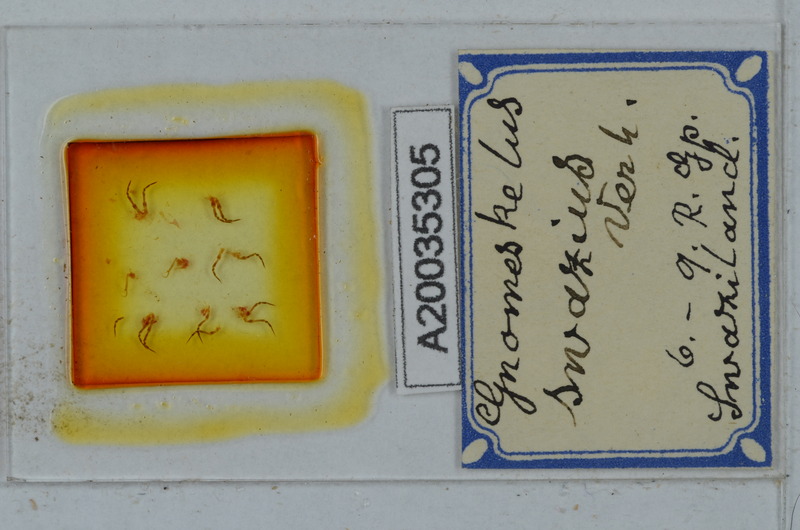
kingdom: Animalia
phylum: Arthropoda
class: Diplopoda
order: Polydesmida
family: Dalodesmidae
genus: Gnomeskelus
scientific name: Gnomeskelus swazius
